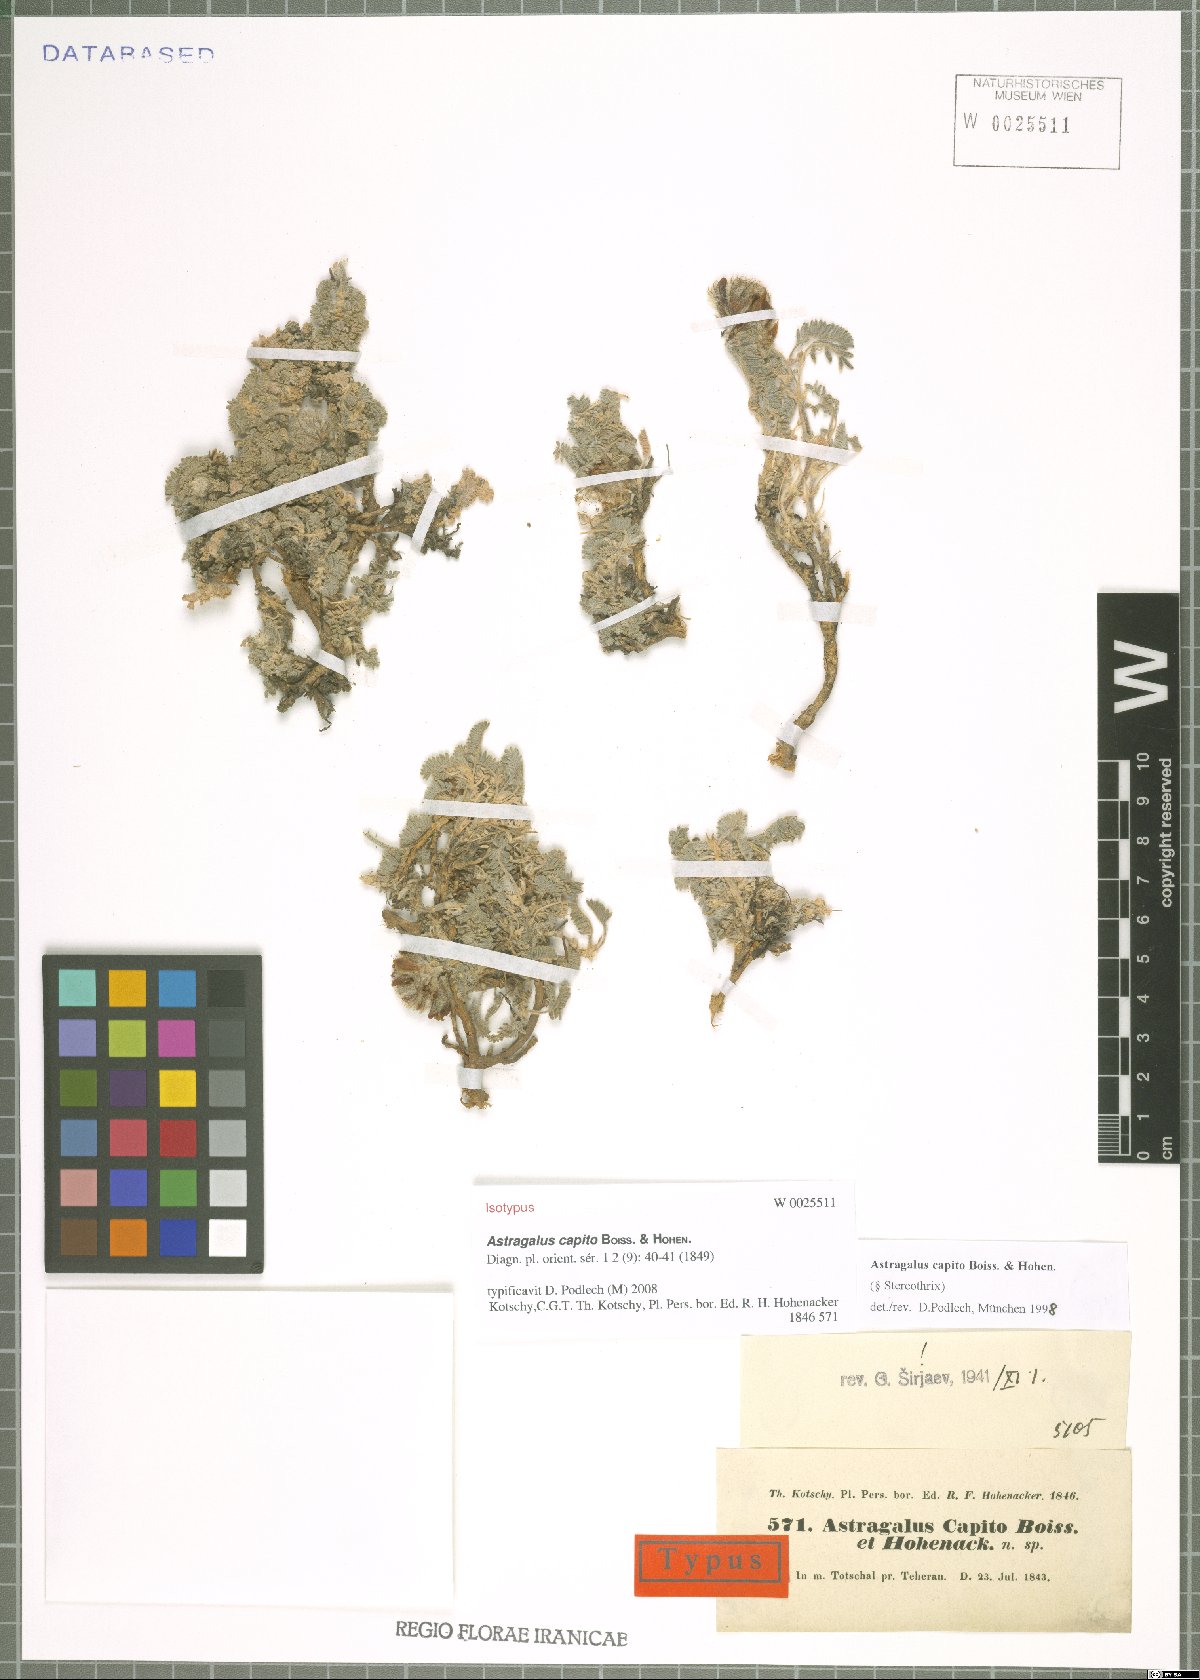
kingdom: Plantae
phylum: Tracheophyta
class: Magnoliopsida
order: Fabales
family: Fabaceae
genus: Astragalus
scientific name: Astragalus capito
